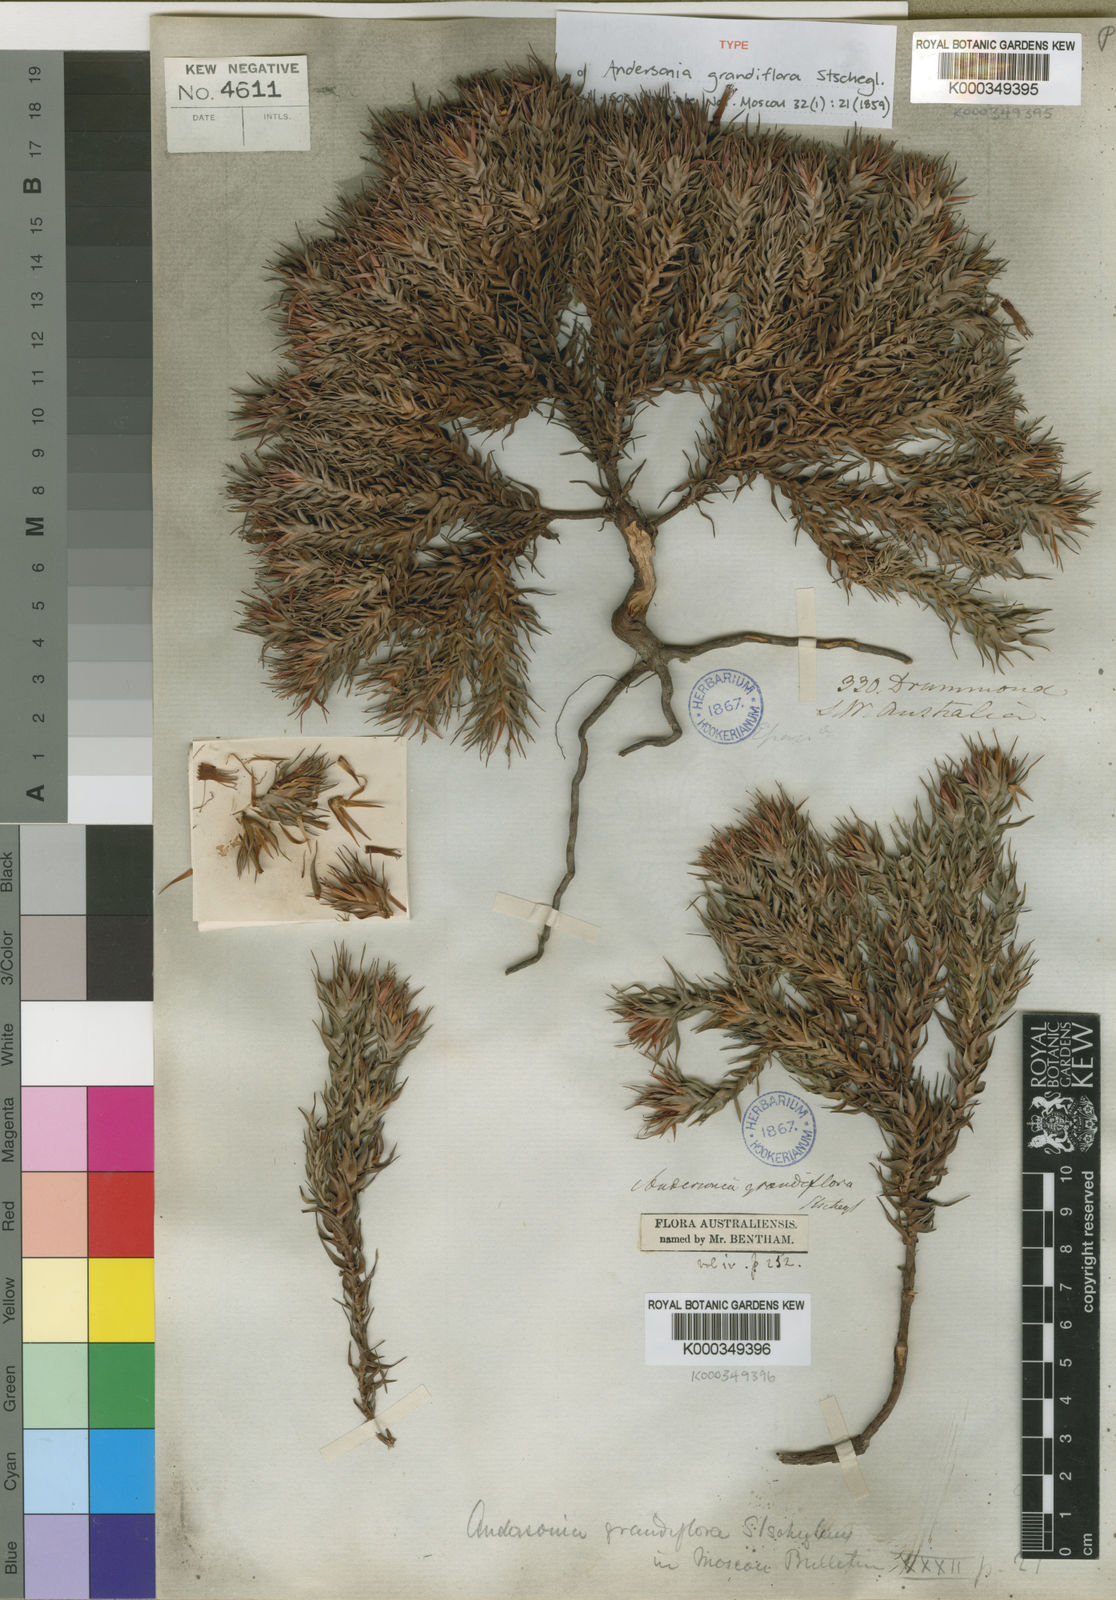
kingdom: Plantae
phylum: Tracheophyta
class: Magnoliopsida
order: Ericales
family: Ericaceae
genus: Andersonia
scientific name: Andersonia grandiflora
